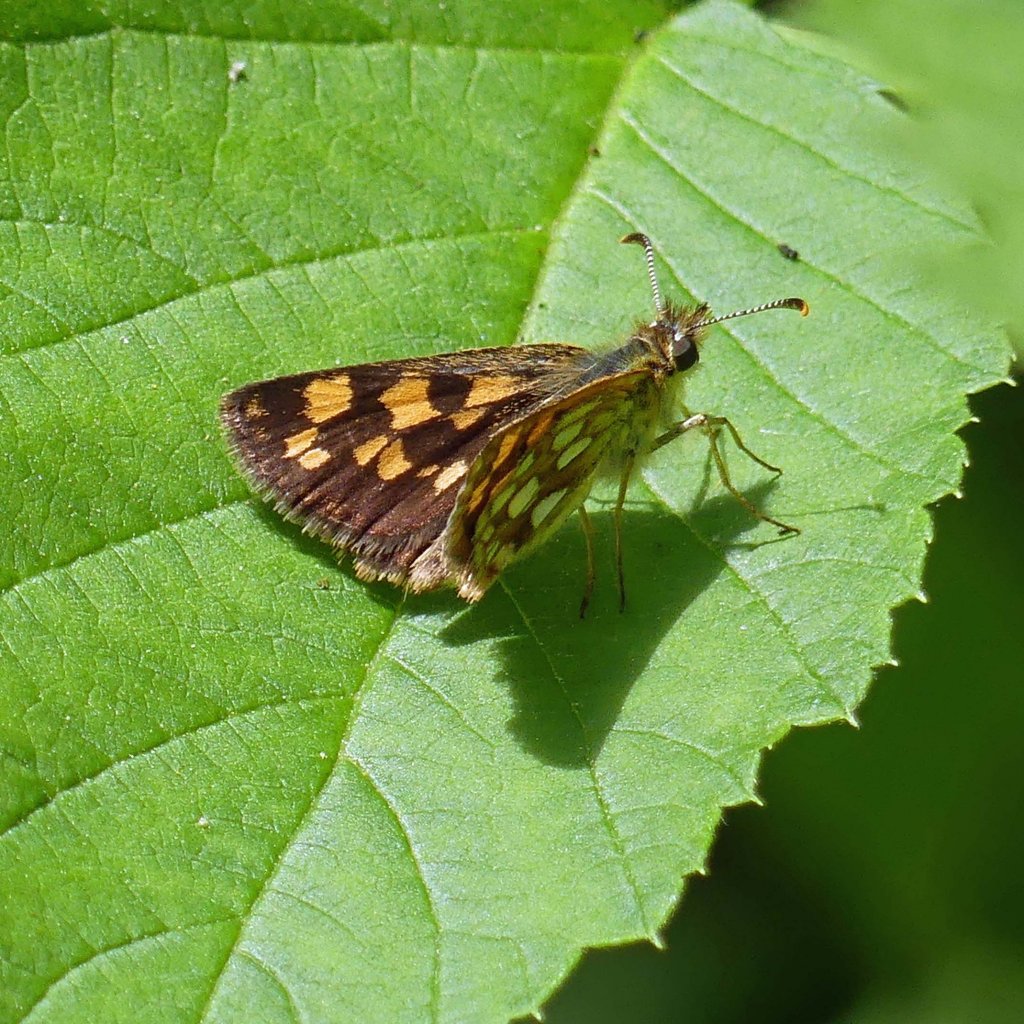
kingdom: Animalia
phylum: Arthropoda
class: Insecta
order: Lepidoptera
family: Hesperiidae
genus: Carterocephalus
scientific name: Carterocephalus palaemon
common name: Chequered Skipper
